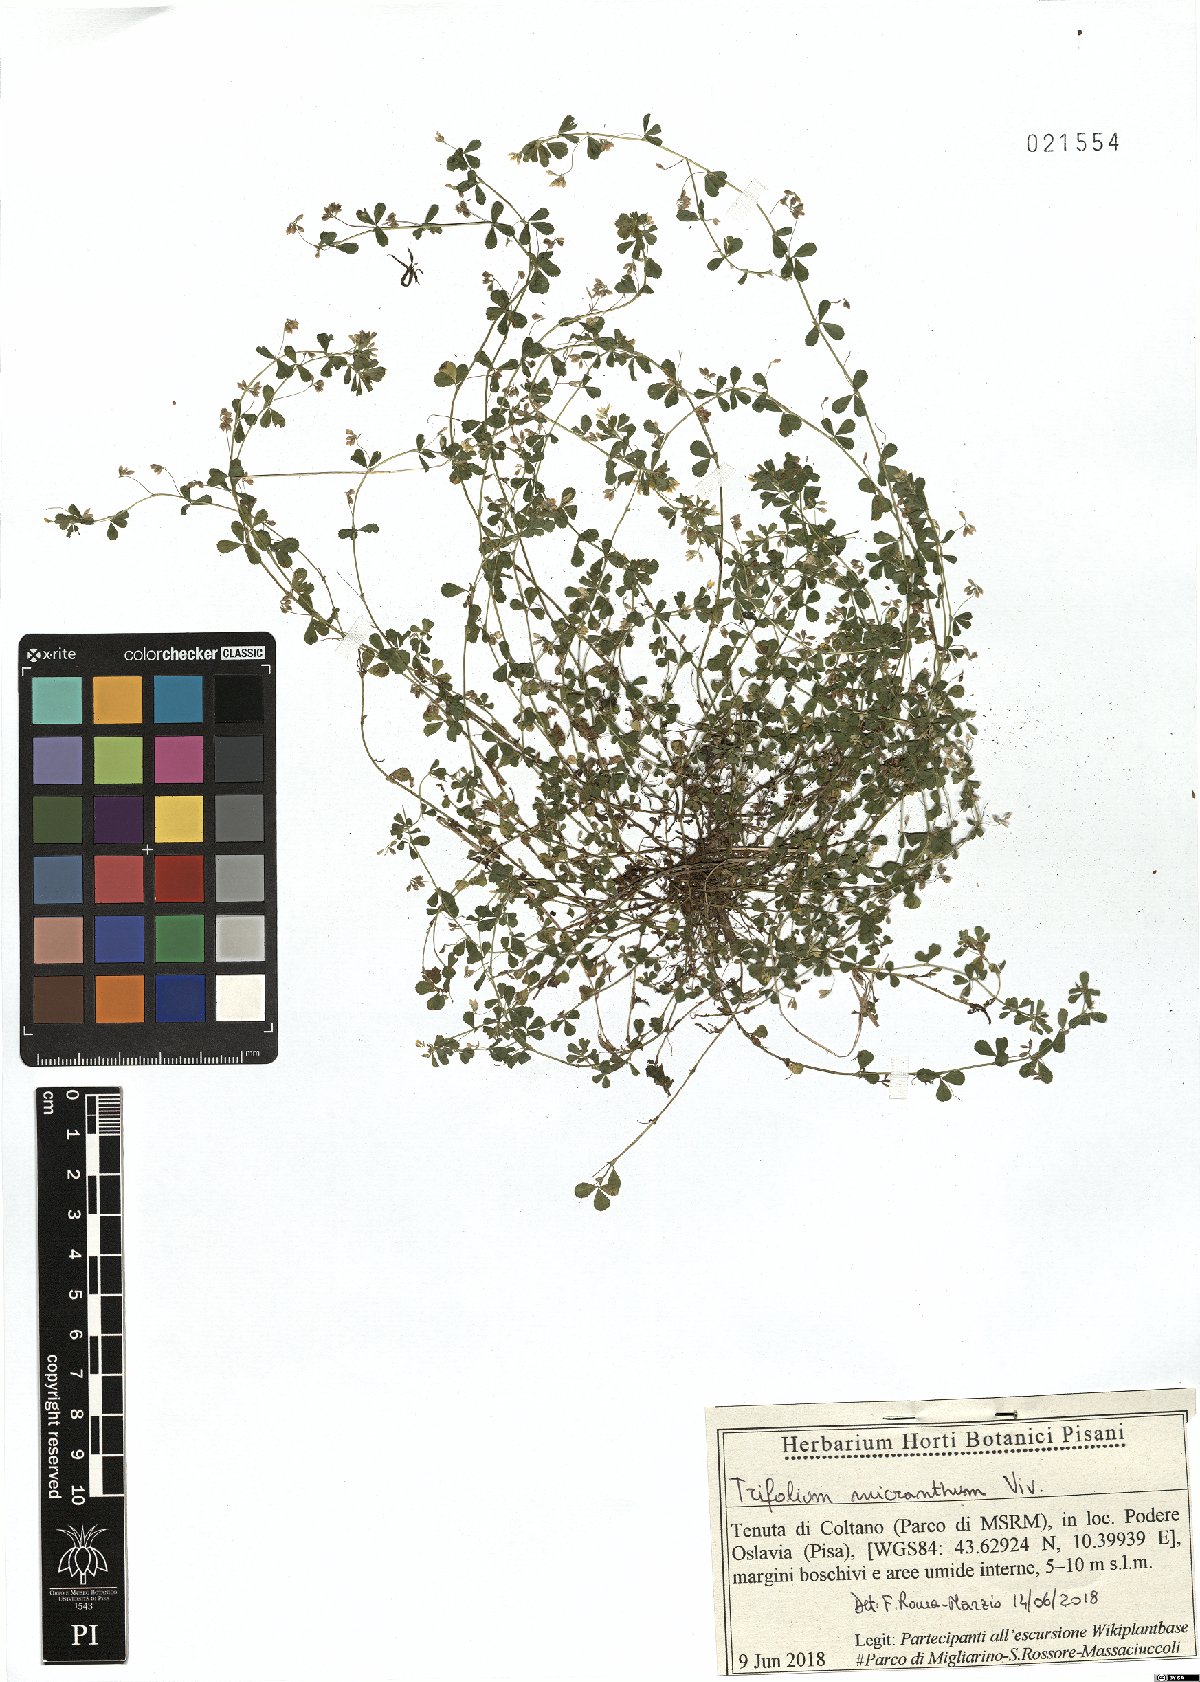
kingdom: Plantae
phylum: Tracheophyta
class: Magnoliopsida
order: Fabales
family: Fabaceae
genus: Trifolium
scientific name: Trifolium micranthum
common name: Slender trefoil
